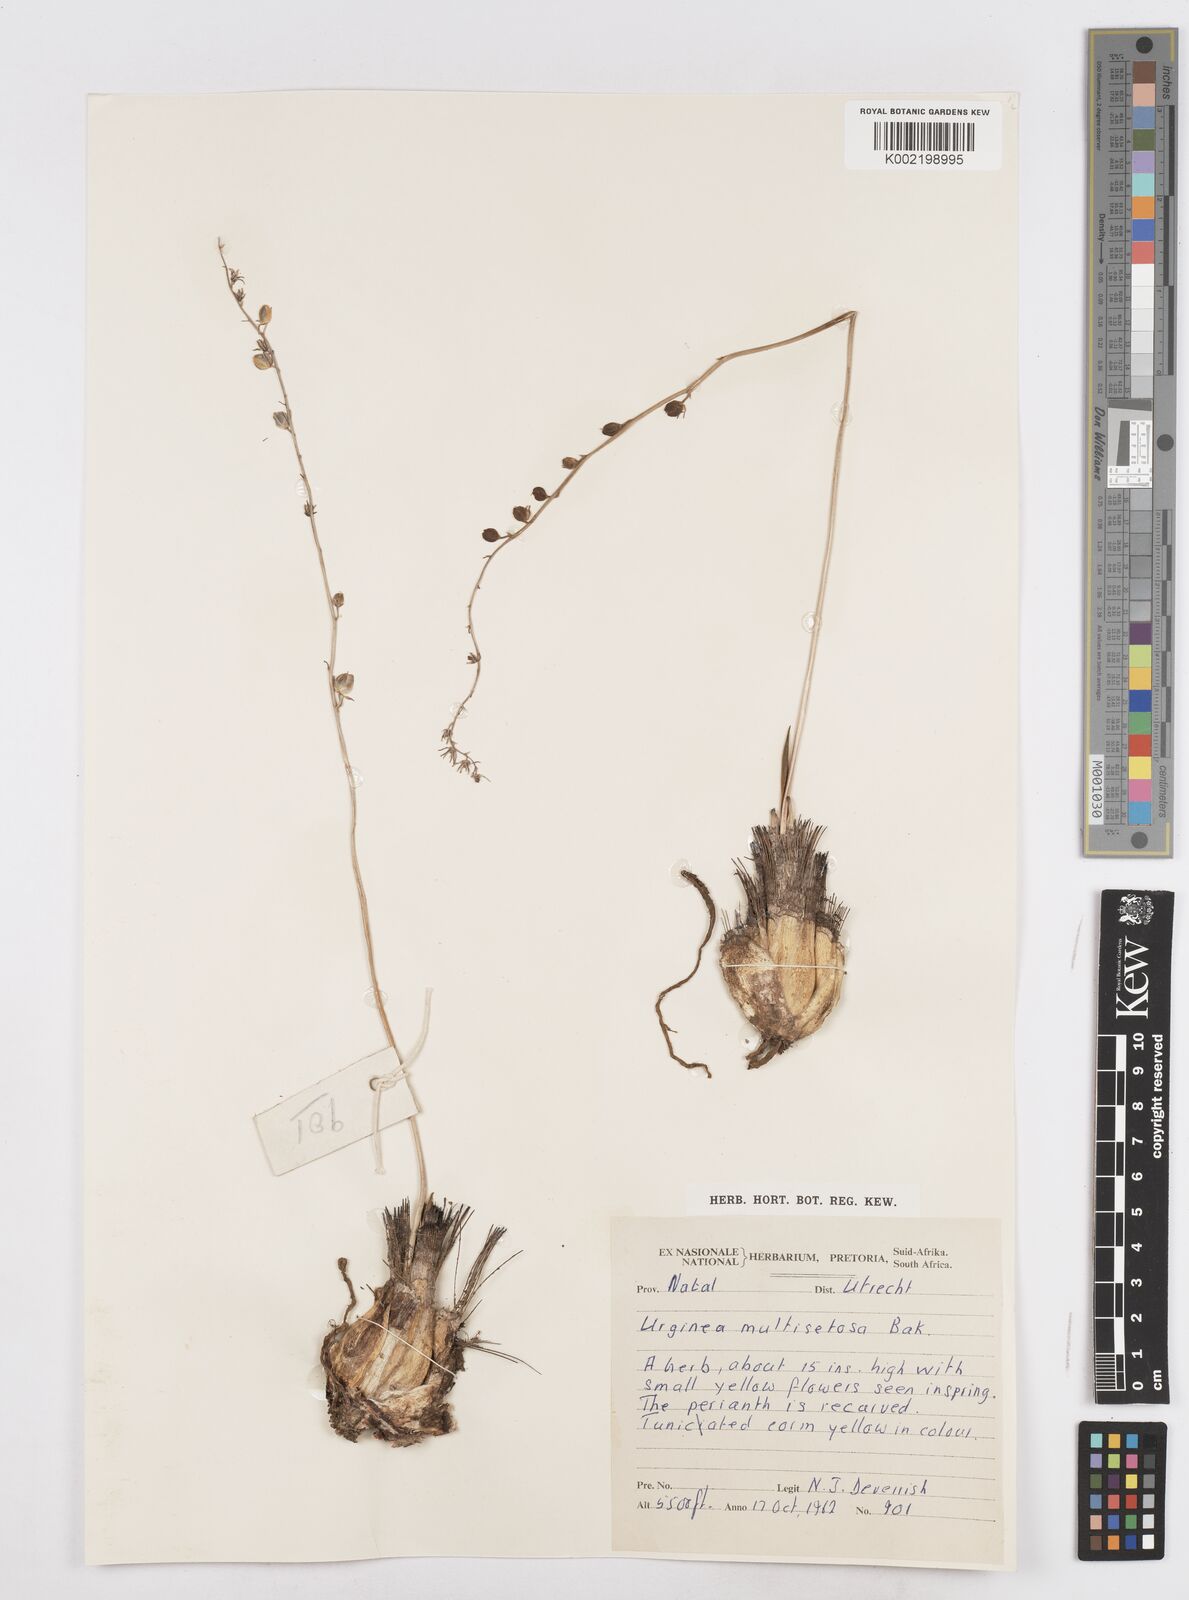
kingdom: Plantae
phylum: Tracheophyta
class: Liliopsida
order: Asparagales
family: Asparagaceae
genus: Drimia
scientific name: Drimia multisetosa
